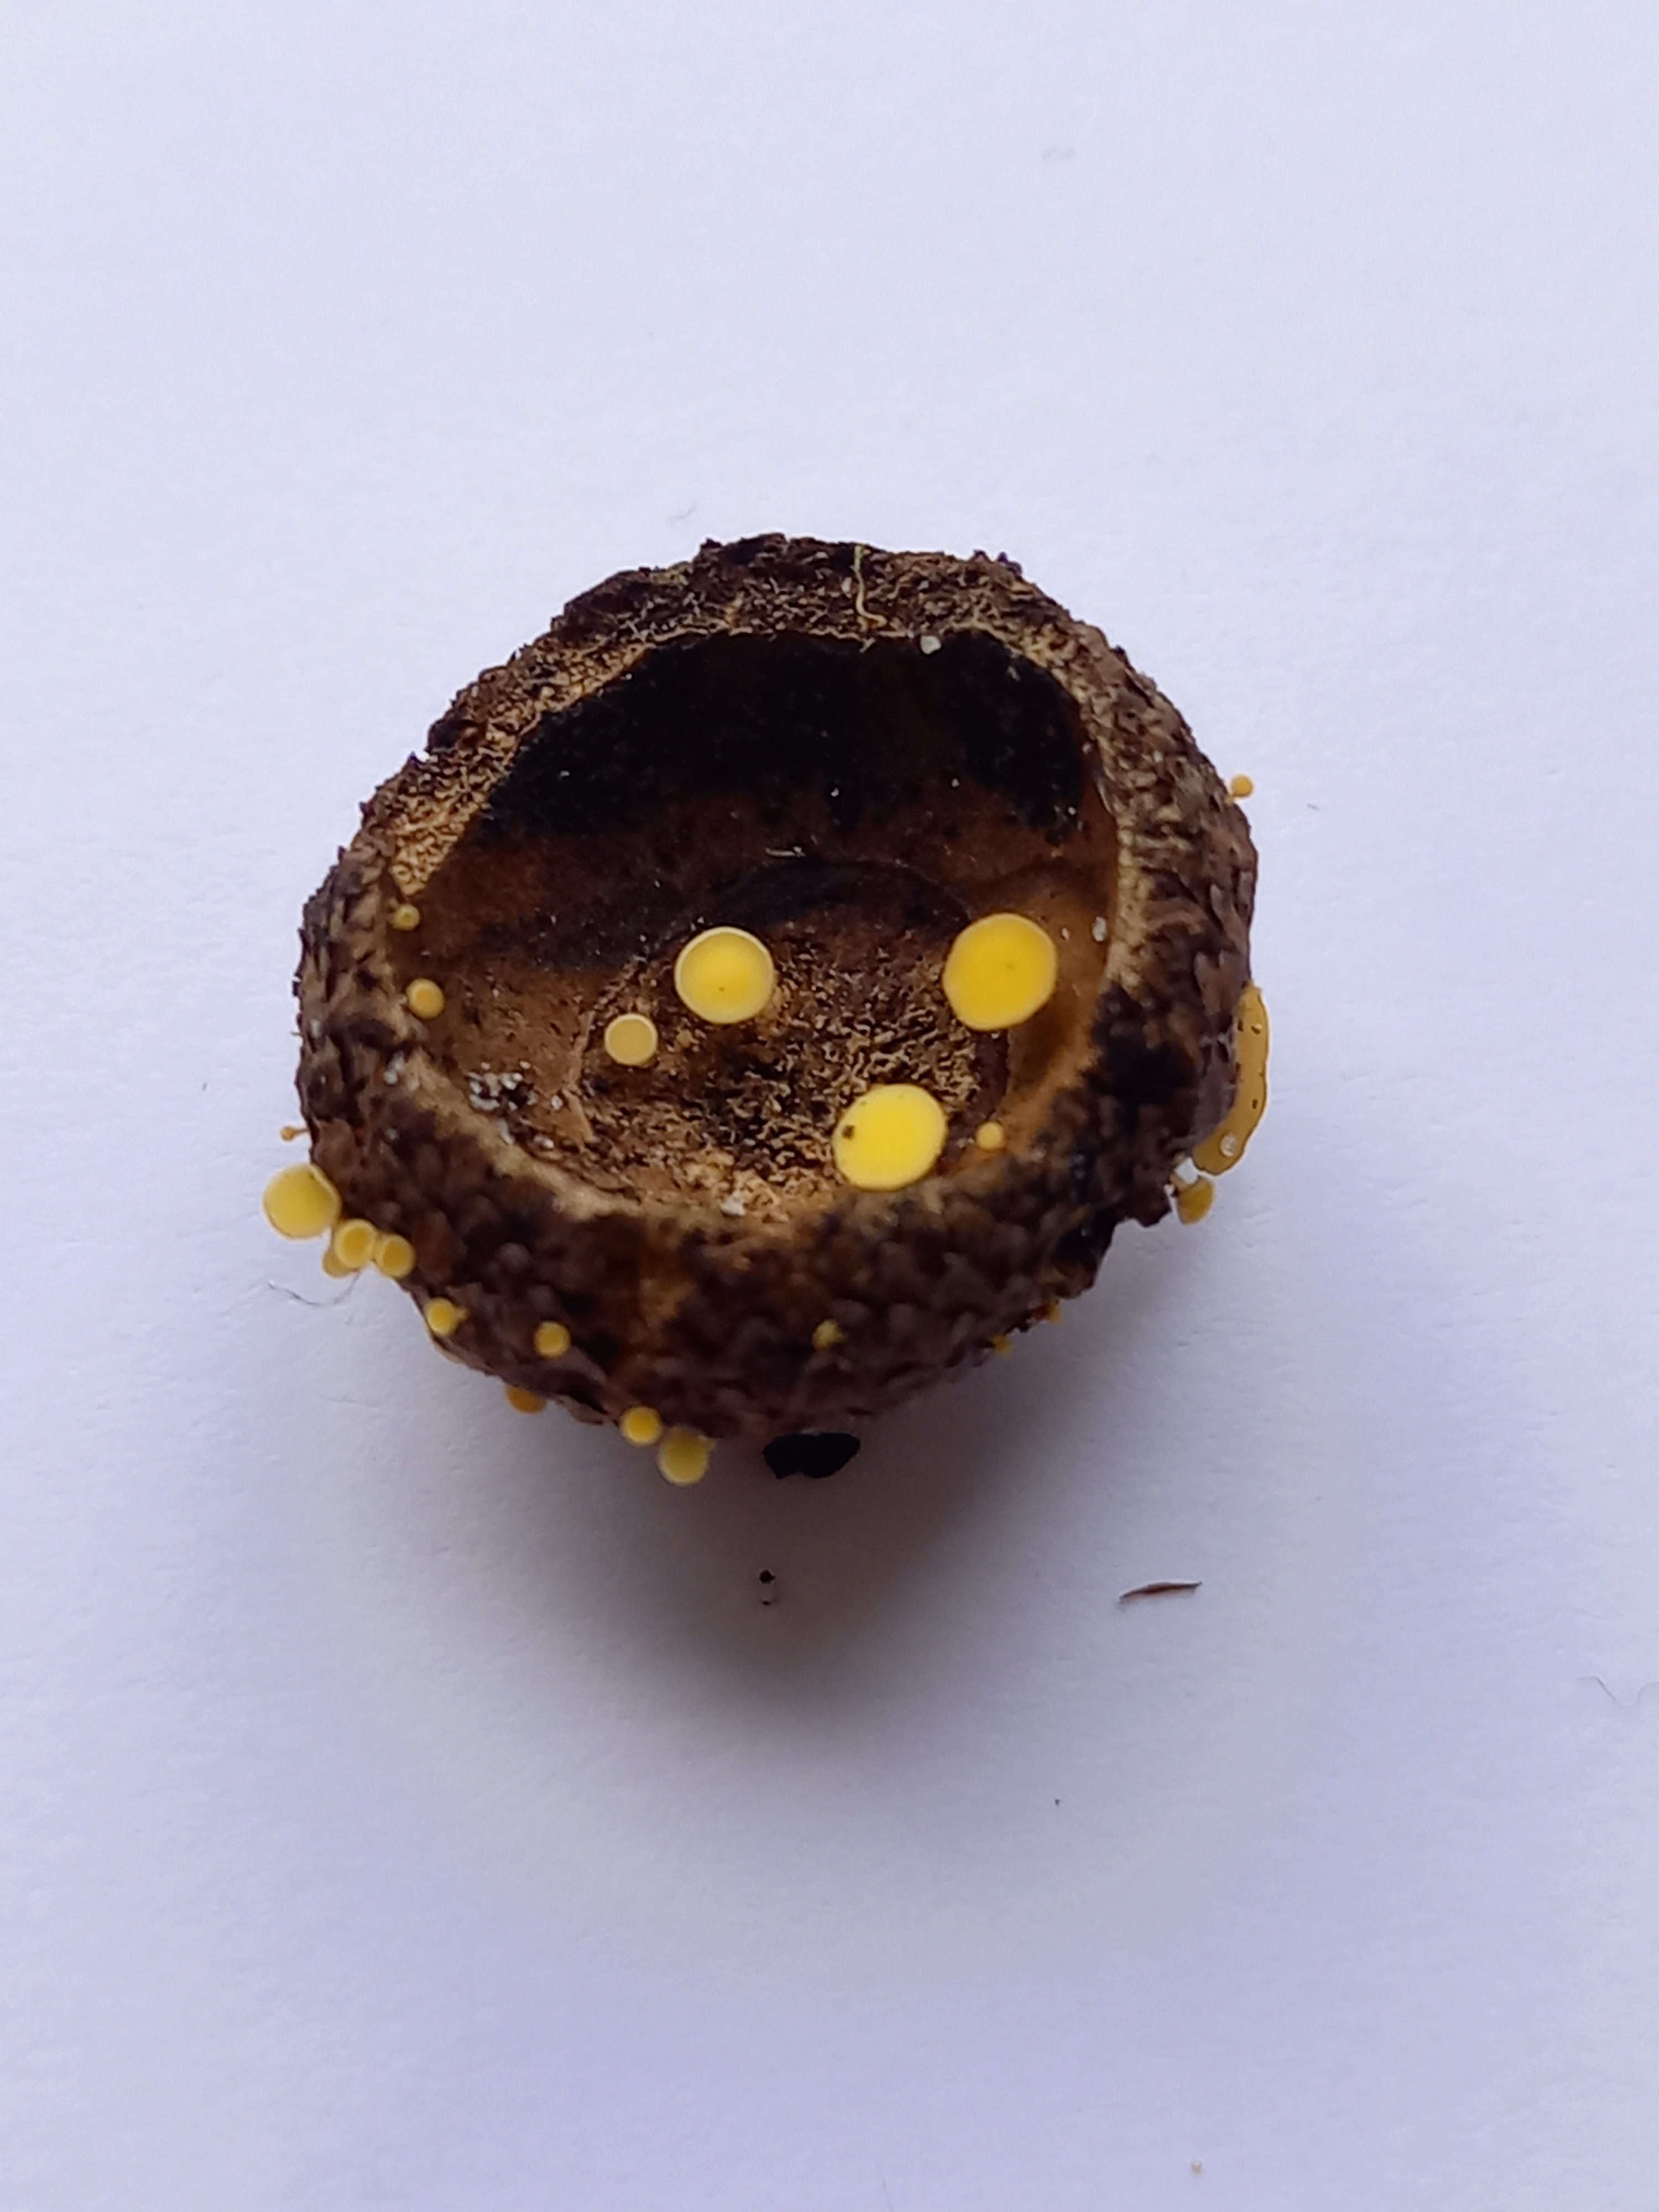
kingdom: Fungi
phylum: Ascomycota
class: Leotiomycetes
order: Helotiales
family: Helotiaceae
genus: Hymenoscyphus
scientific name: Hymenoscyphus fructigenus
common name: frugt-stilkskive
